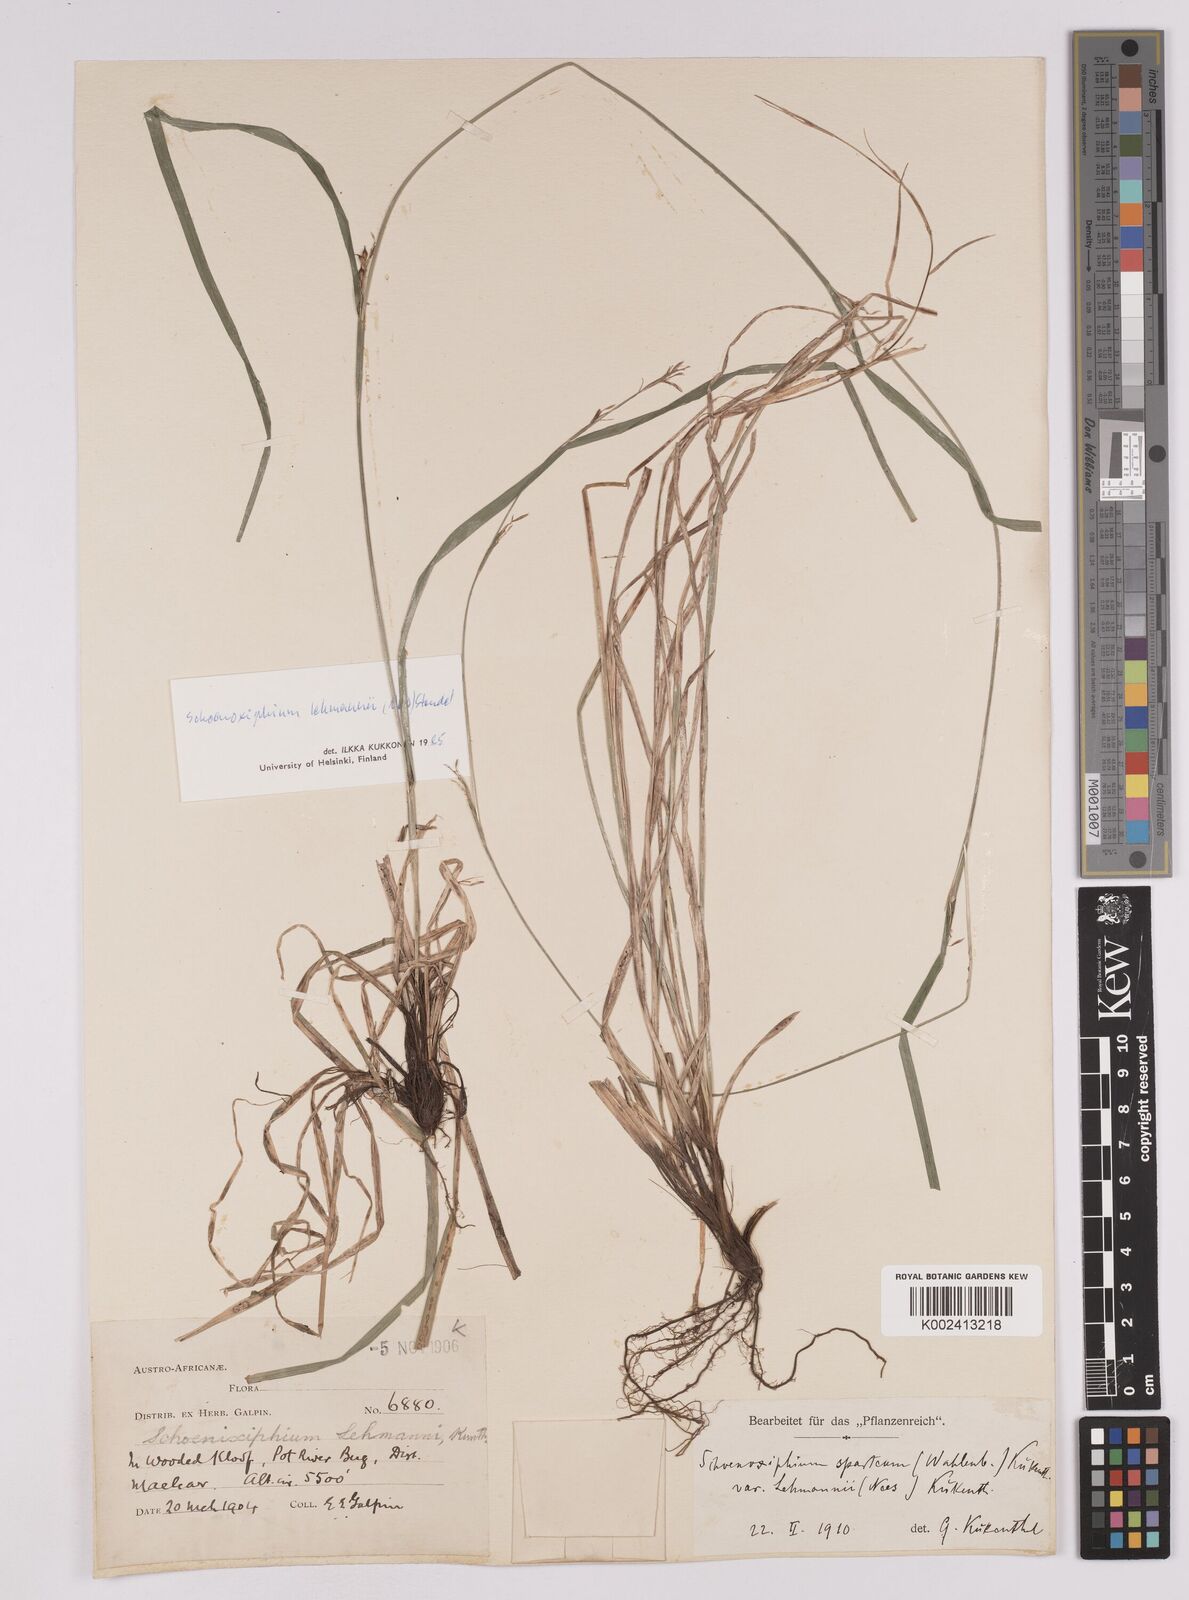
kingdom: Plantae
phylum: Tracheophyta
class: Liliopsida
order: Poales
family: Cyperaceae
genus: Carex
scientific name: Carex uhligii
